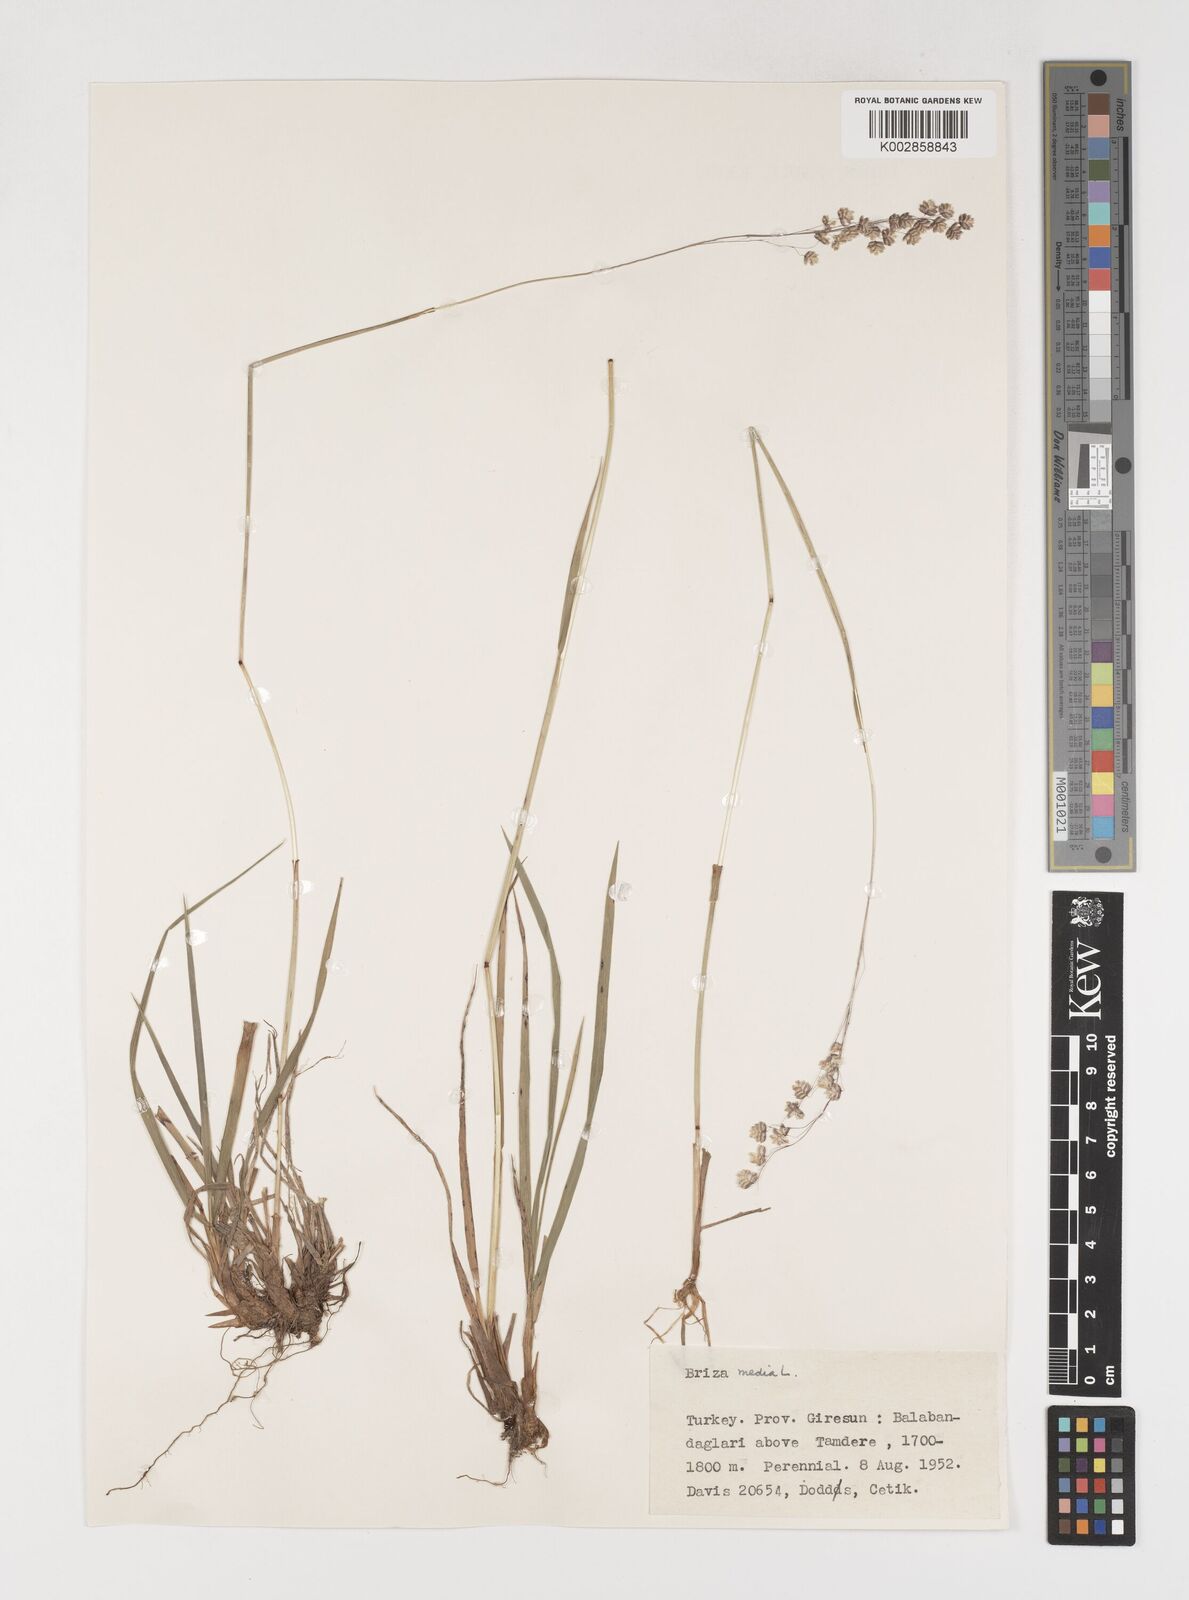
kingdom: Plantae
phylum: Tracheophyta
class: Liliopsida
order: Poales
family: Poaceae
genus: Briza
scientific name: Briza media
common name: Quaking grass
